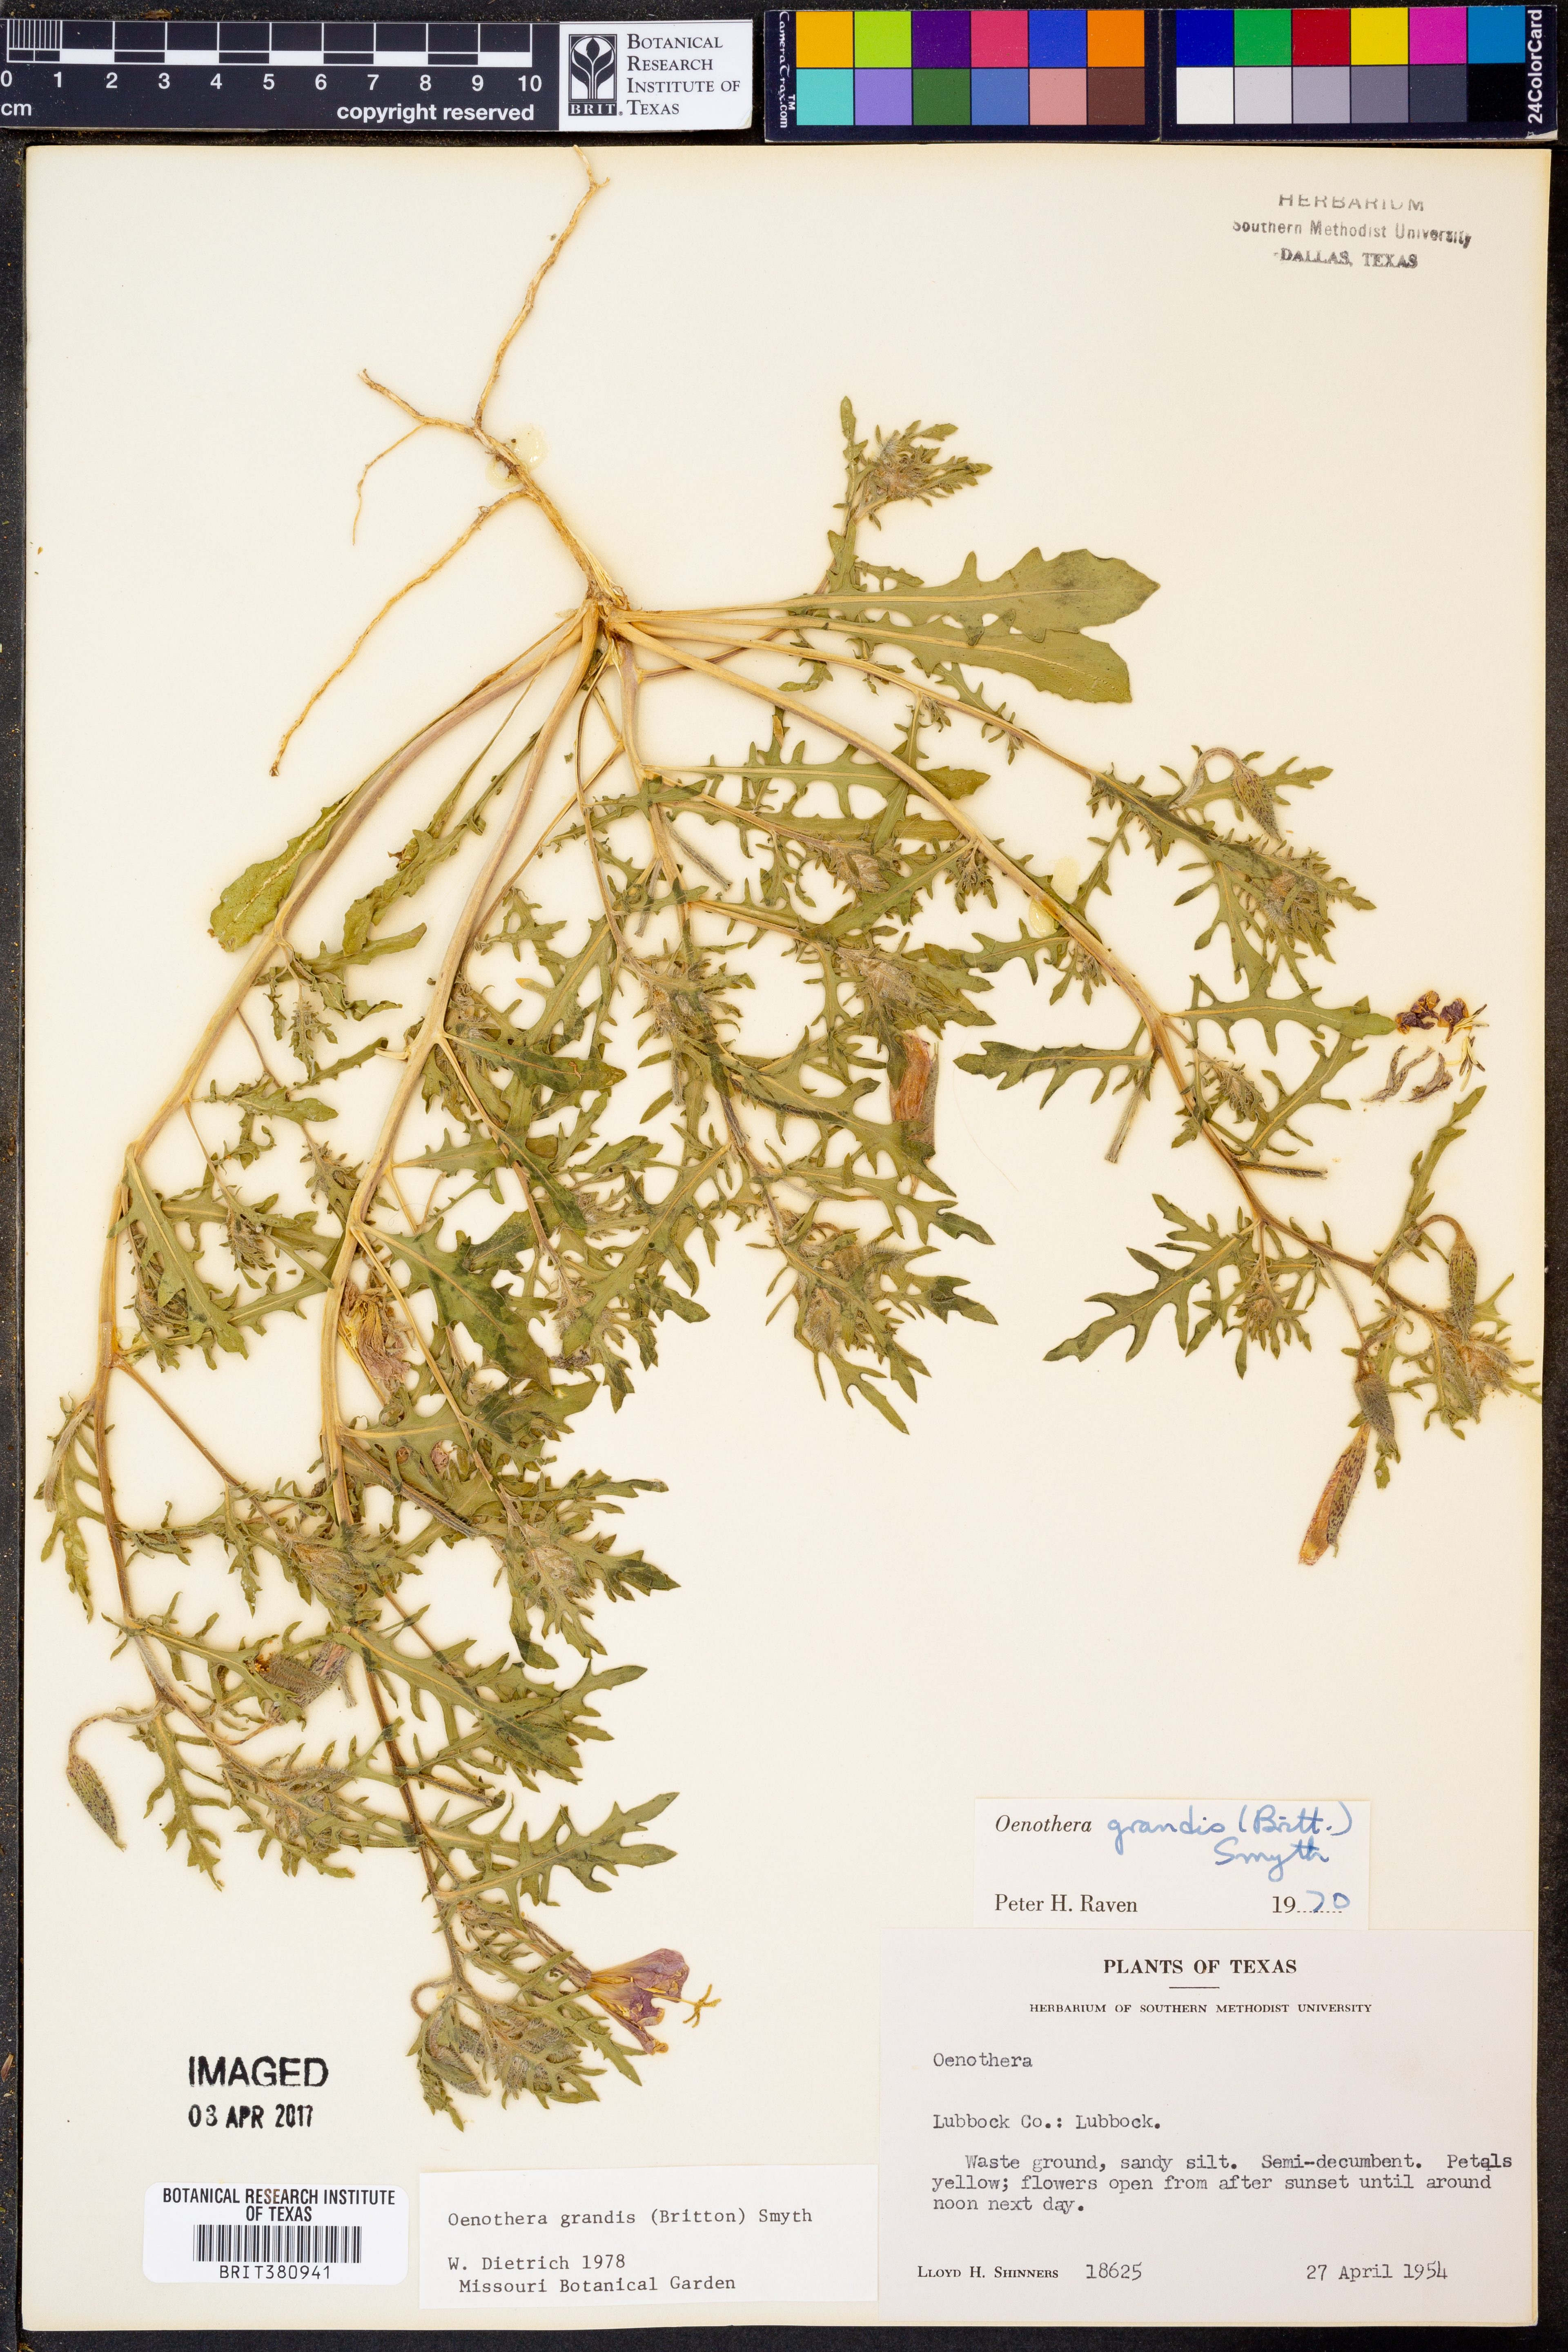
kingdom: Plantae
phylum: Tracheophyta
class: Magnoliopsida
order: Myrtales
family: Onagraceae
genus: Oenothera
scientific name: Oenothera grandis
